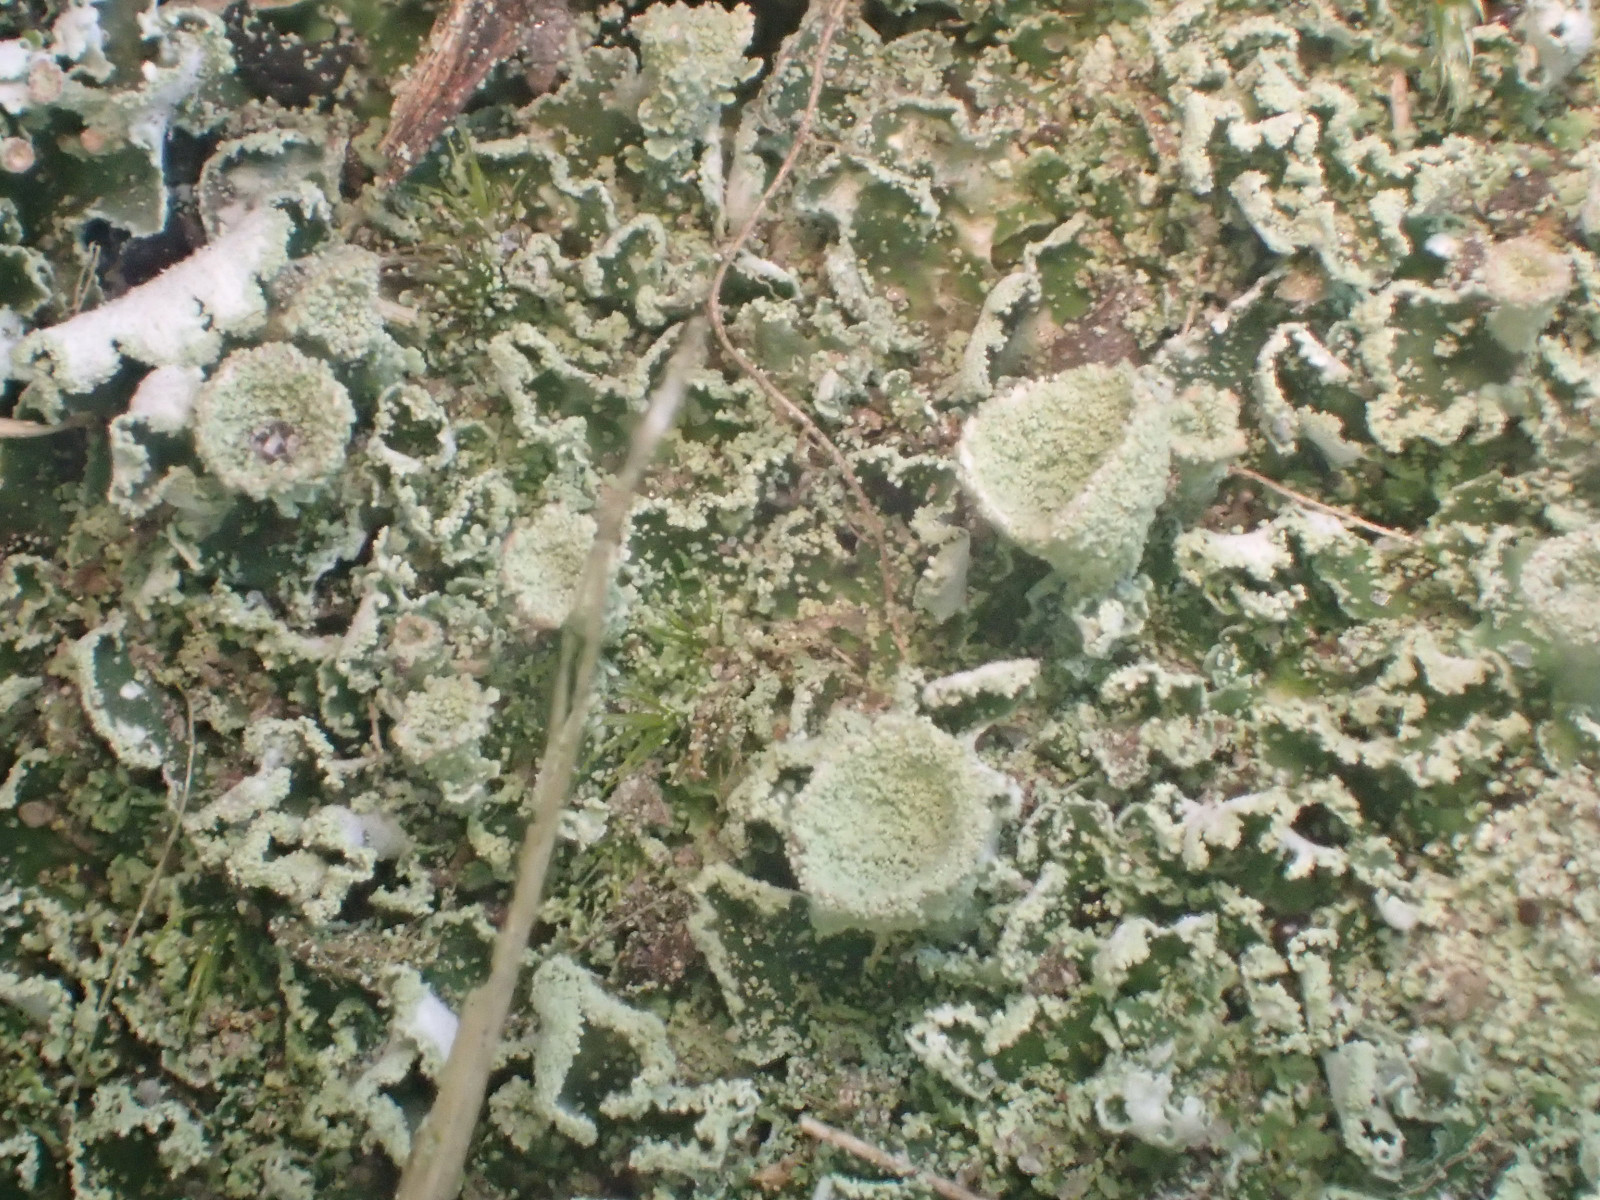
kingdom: Fungi
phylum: Ascomycota
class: Lecanoromycetes
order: Lecanorales
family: Cladoniaceae
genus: Cladonia
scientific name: Cladonia humilis
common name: lav bægerlav
